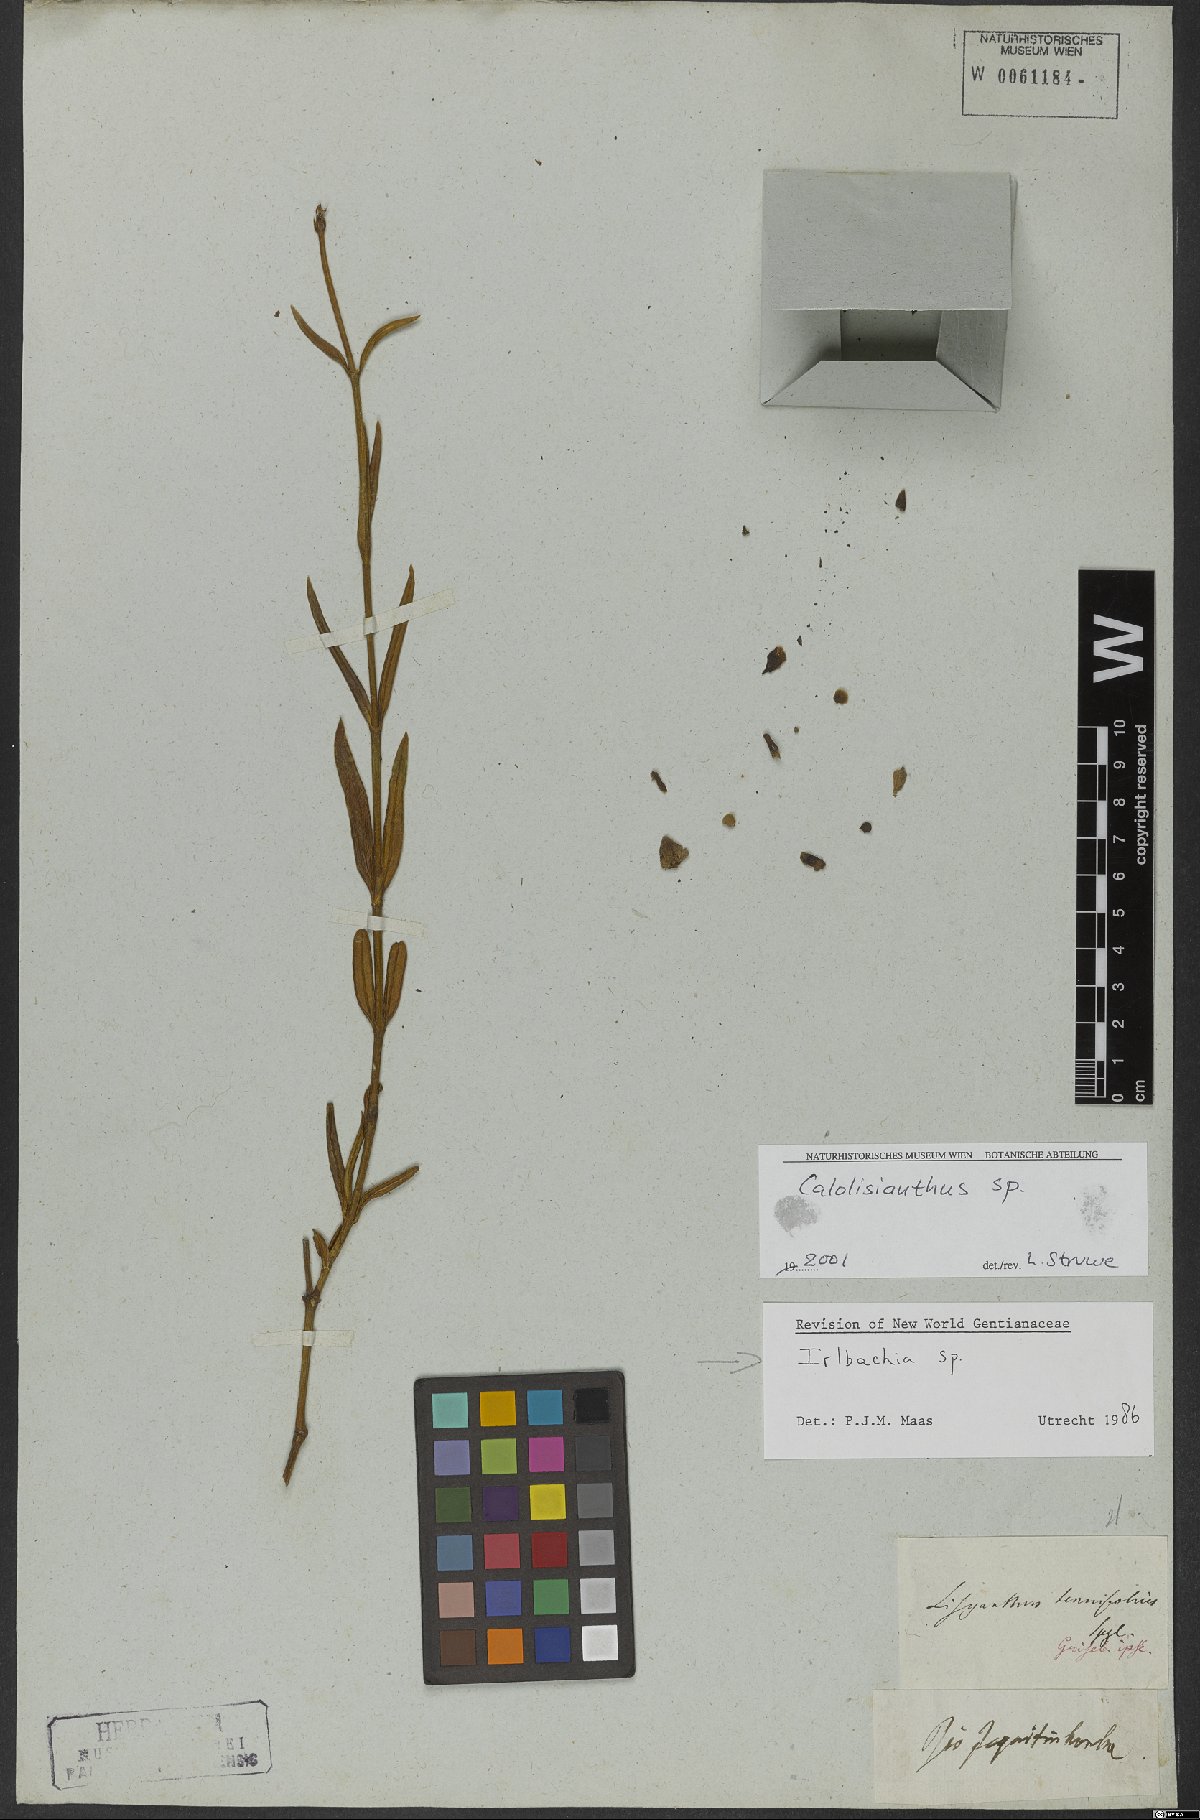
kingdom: Plantae
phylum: Tracheophyta
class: Magnoliopsida
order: Gentianales
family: Gentianaceae
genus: Irlbachia
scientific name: Irlbachia
